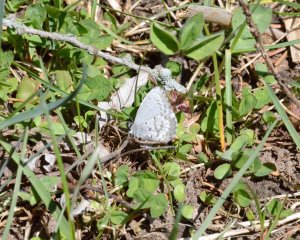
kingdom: Animalia
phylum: Arthropoda
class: Insecta
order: Lepidoptera
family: Lycaenidae
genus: Celastrina
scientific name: Celastrina lucia
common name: Northern Spring Azure
